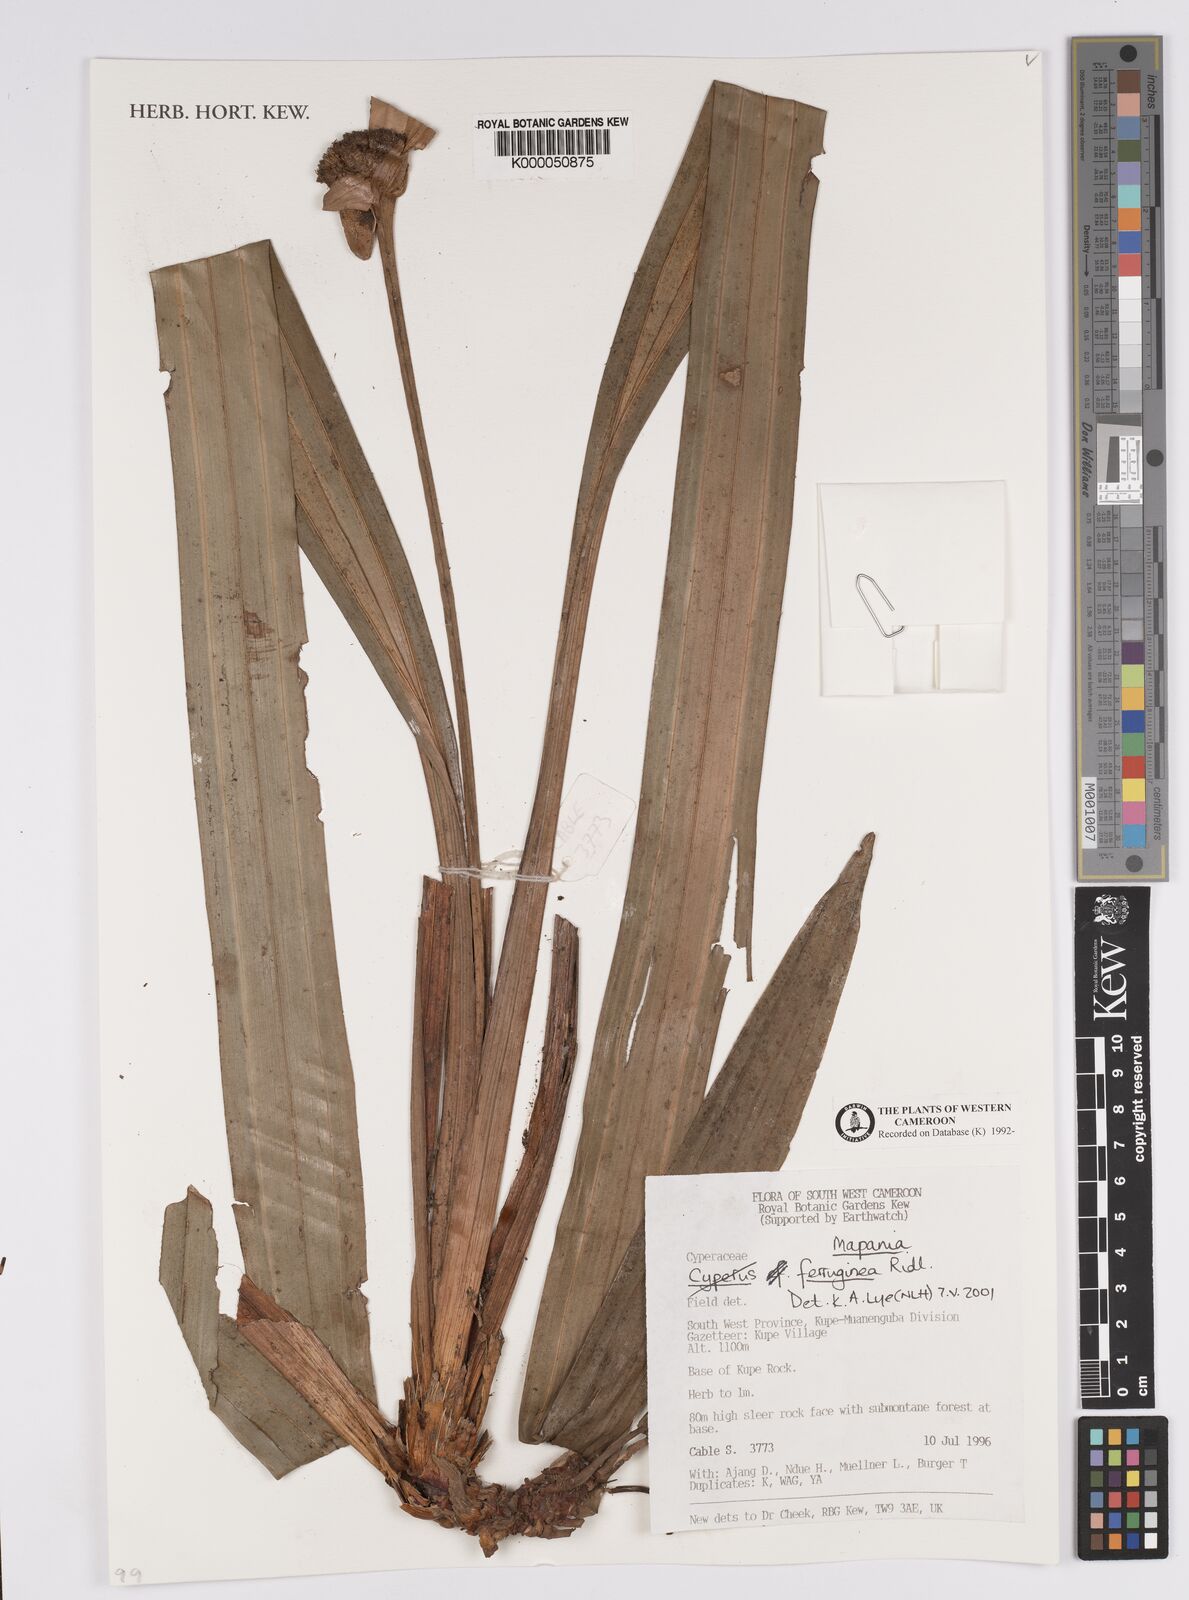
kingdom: Plantae
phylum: Tracheophyta
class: Liliopsida
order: Poales
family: Cyperaceae
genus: Mapania
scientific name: Mapania ferruginea
